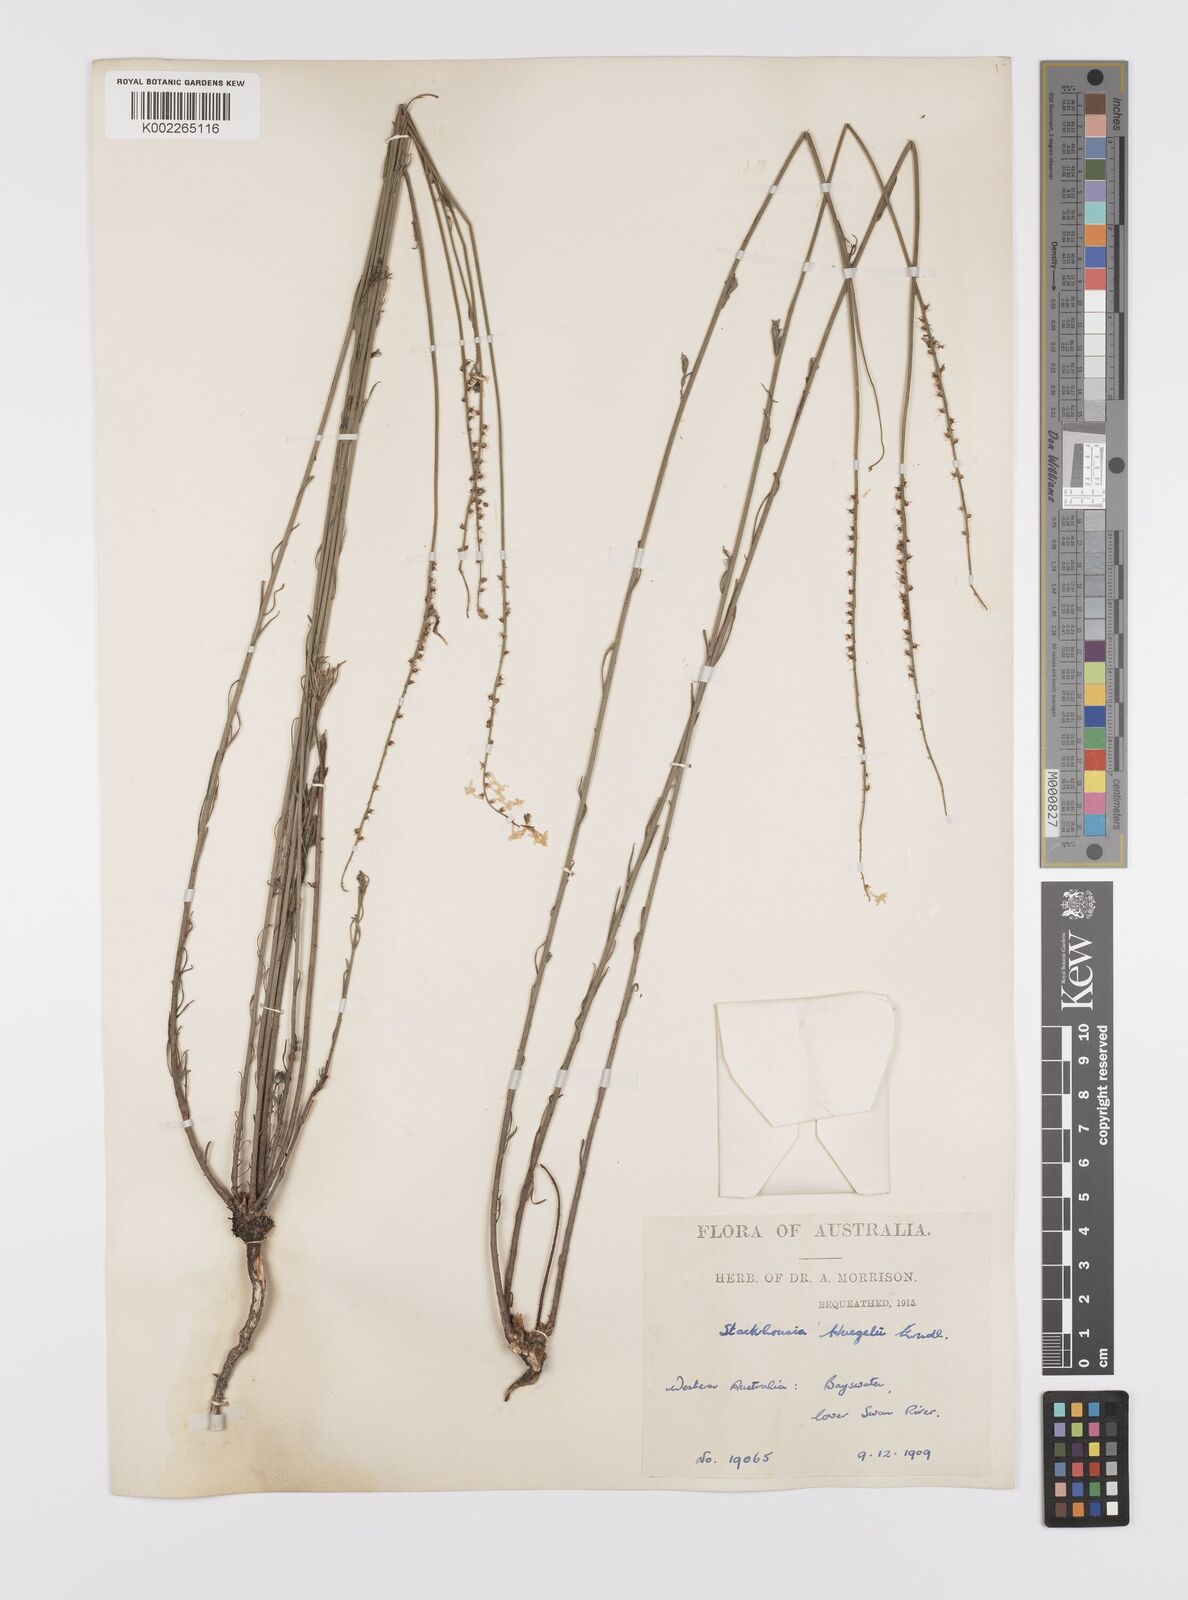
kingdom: Plantae
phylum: Tracheophyta
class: Magnoliopsida
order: Celastrales
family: Celastraceae
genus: Stackhousia
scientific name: Stackhousia monogyna
